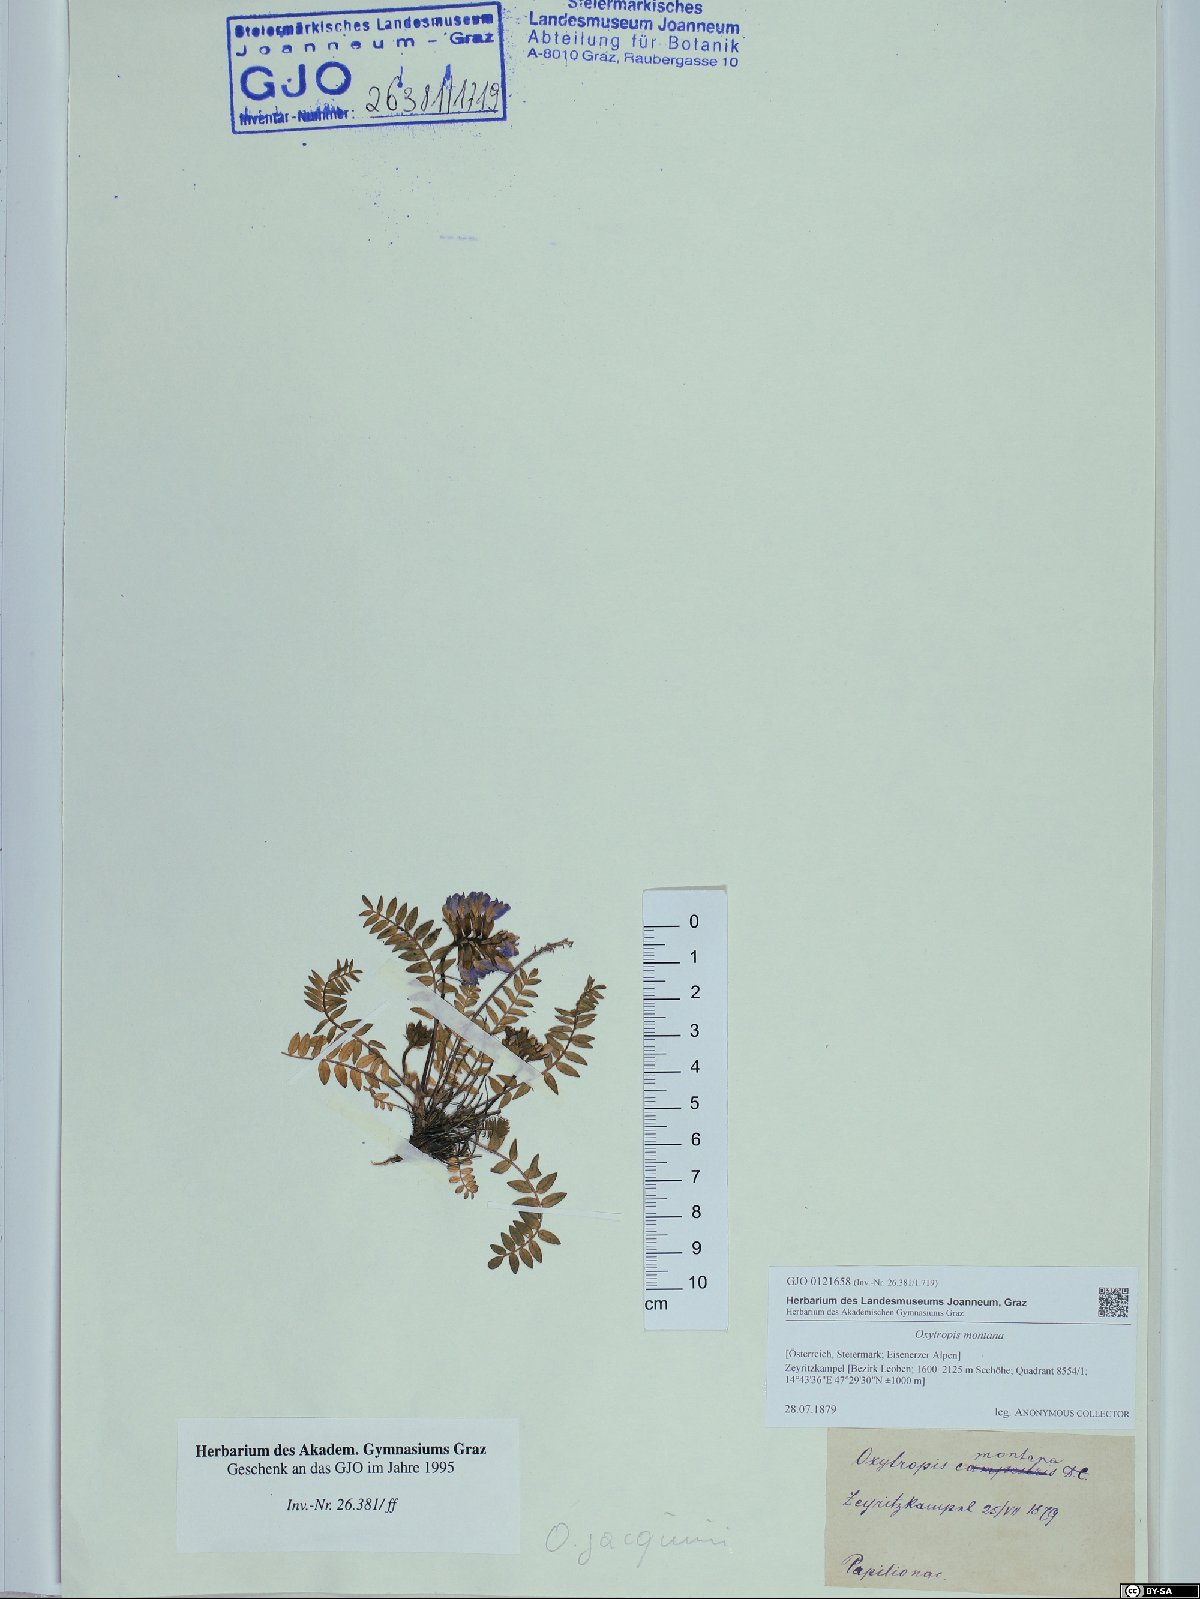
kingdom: Plantae
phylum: Tracheophyta
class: Magnoliopsida
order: Fabales
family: Fabaceae
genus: Oxytropis
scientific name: Oxytropis montana
